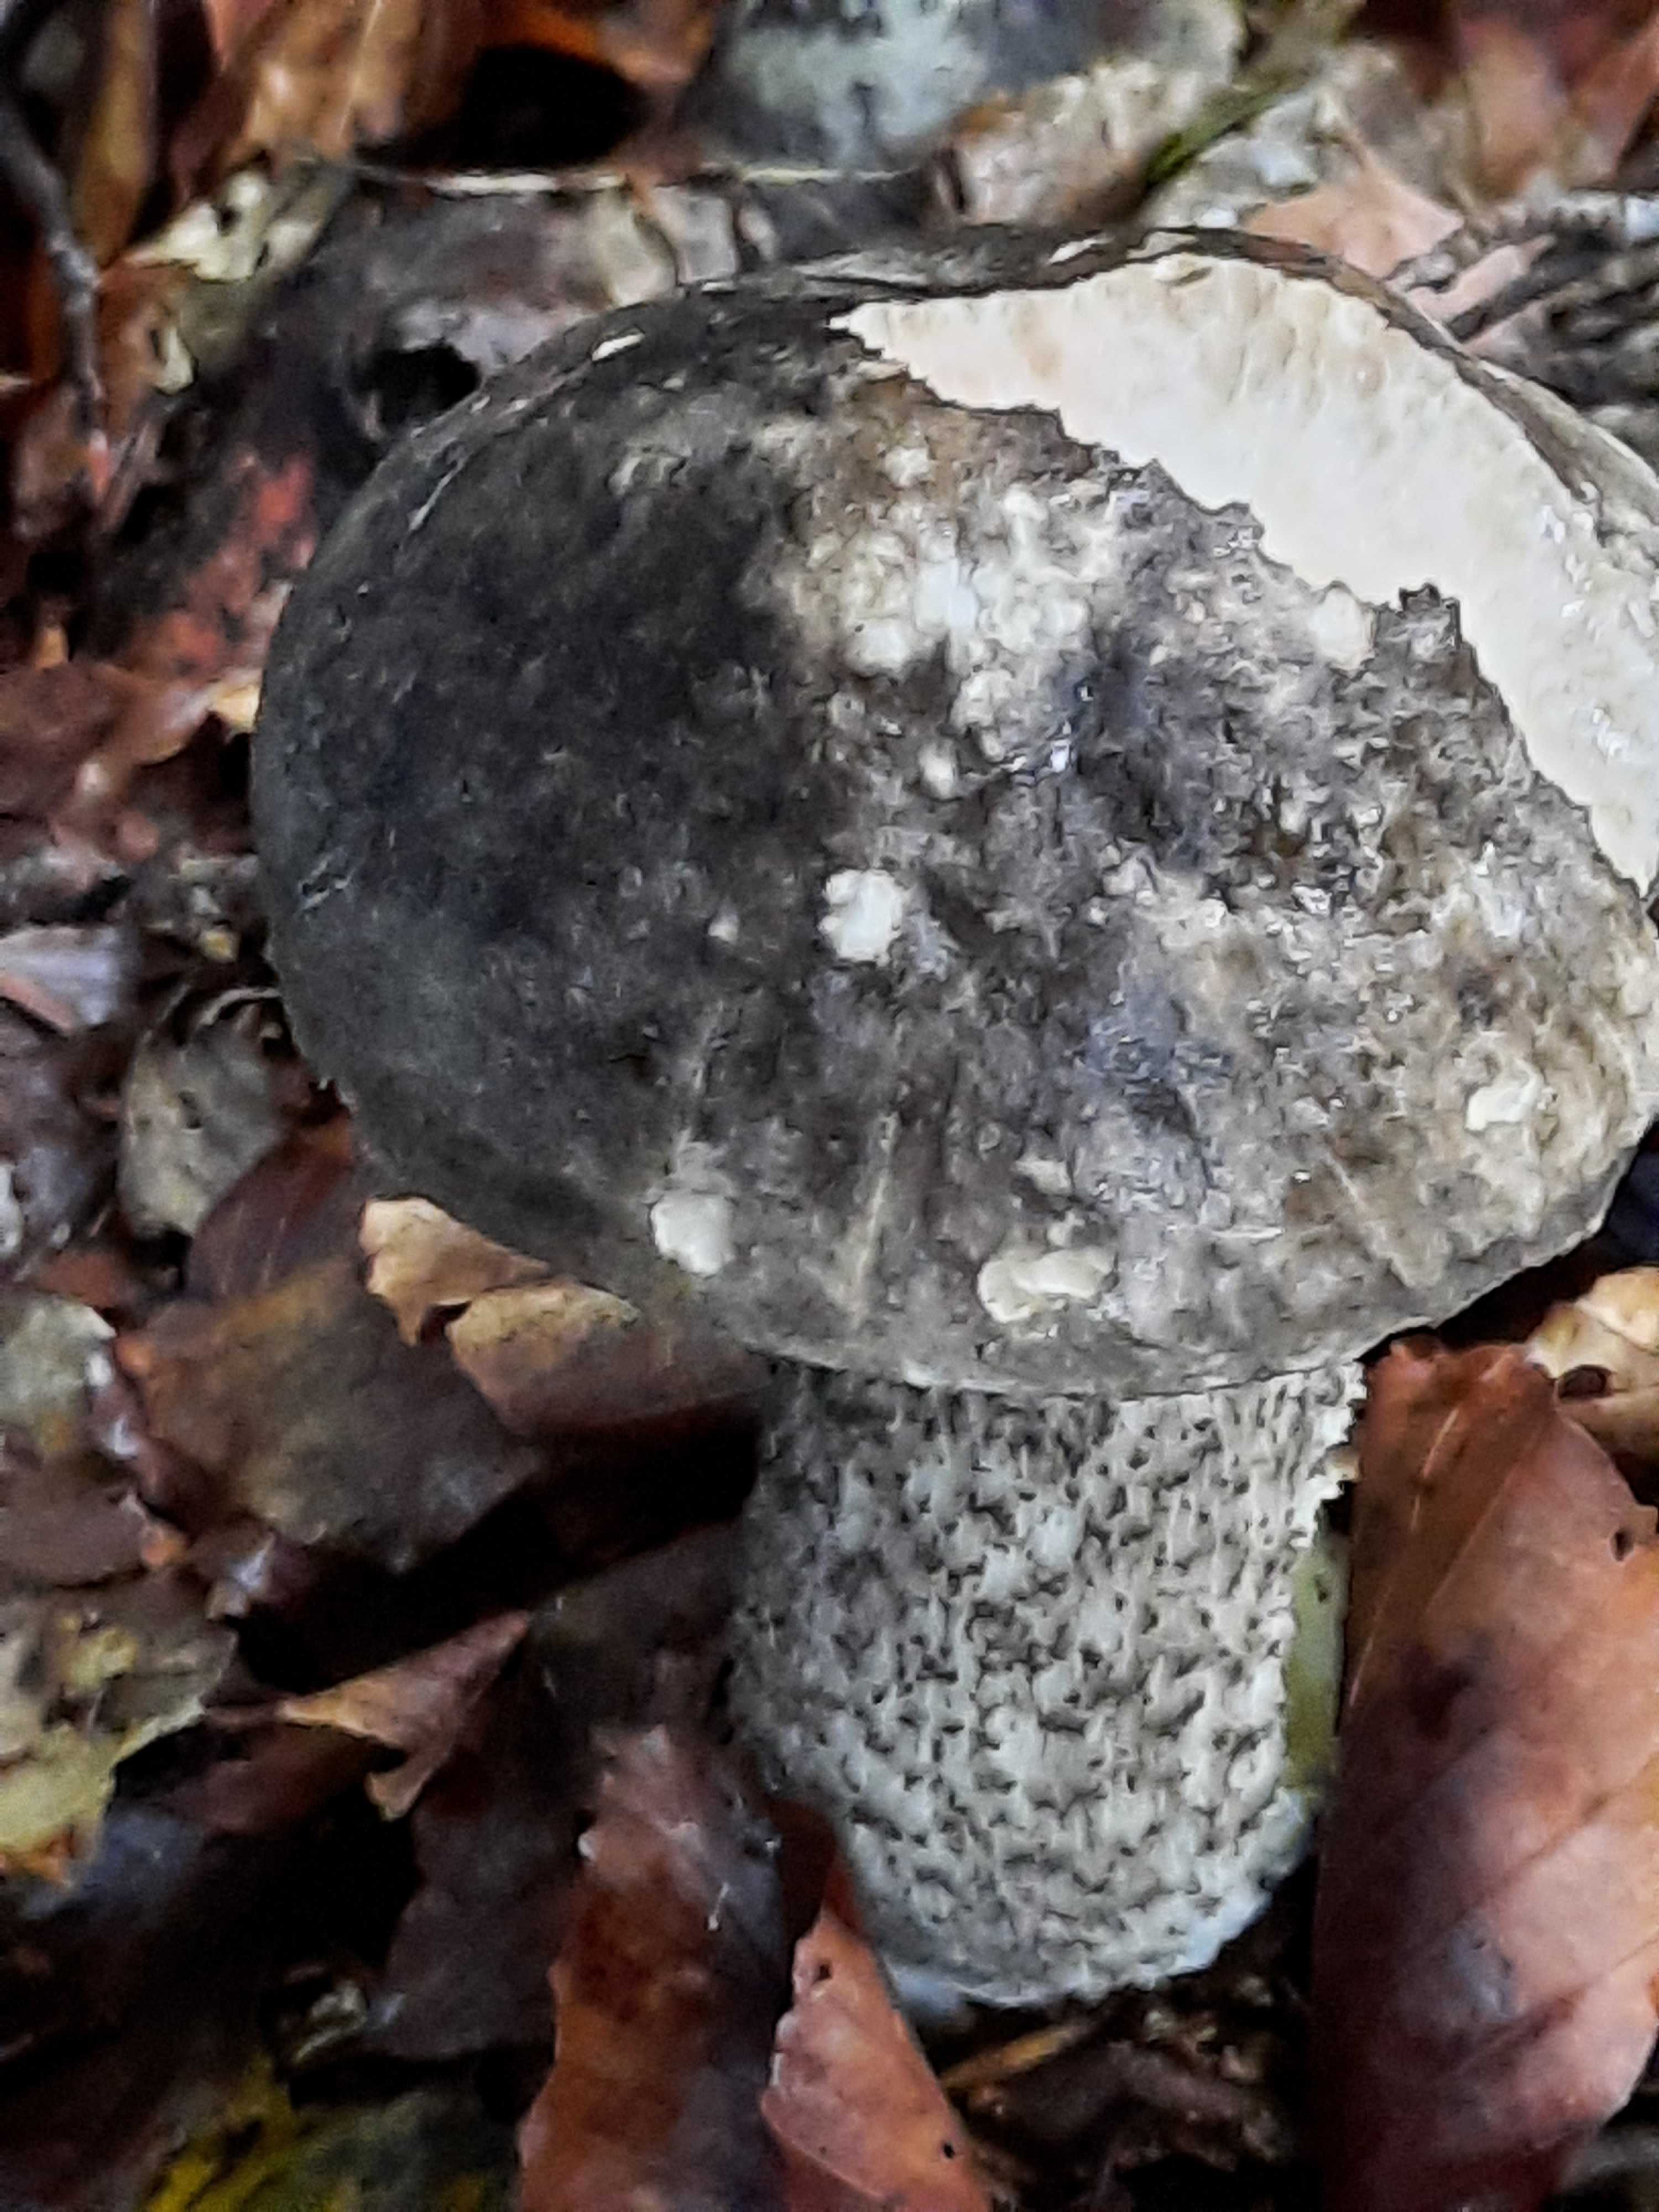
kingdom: Fungi
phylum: Basidiomycota
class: Agaricomycetes
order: Boletales
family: Boletaceae
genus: Leccinum
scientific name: Leccinum variicolor
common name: flammet skælrørhat
